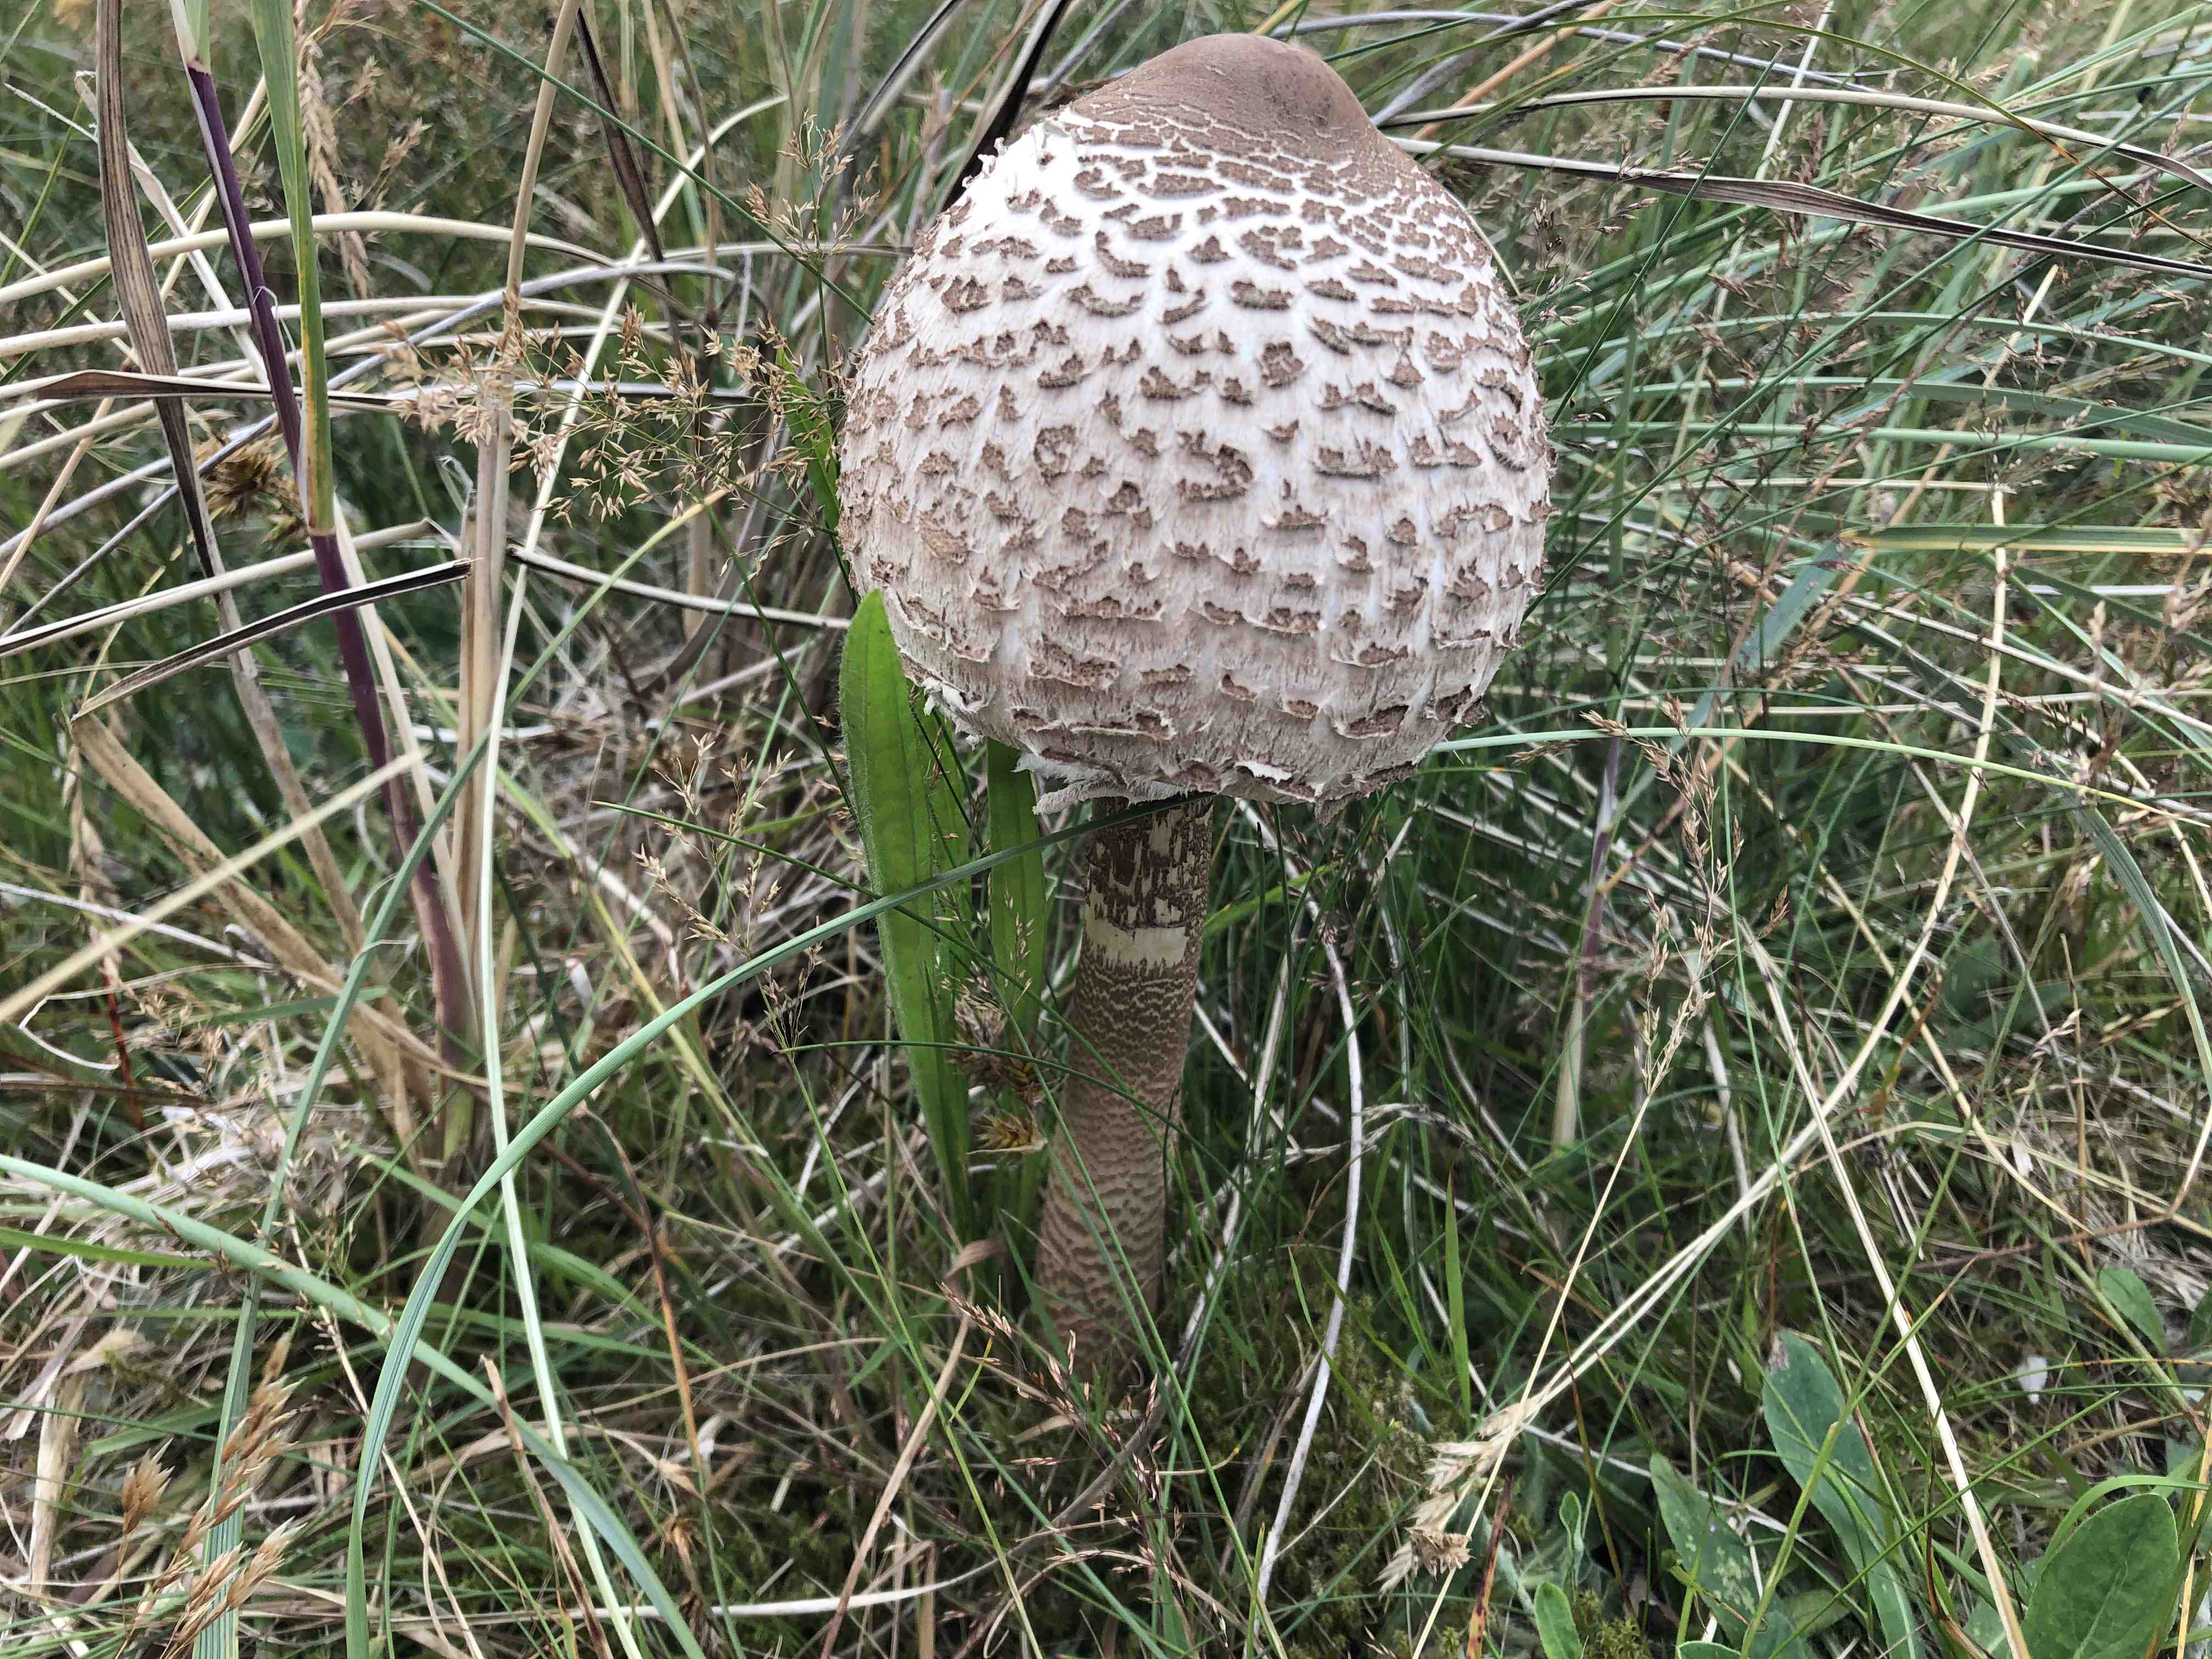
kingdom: Fungi
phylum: Basidiomycota
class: Agaricomycetes
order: Agaricales
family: Agaricaceae
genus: Macrolepiota
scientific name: Macrolepiota procera
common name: stor kæmpeparasolhat
